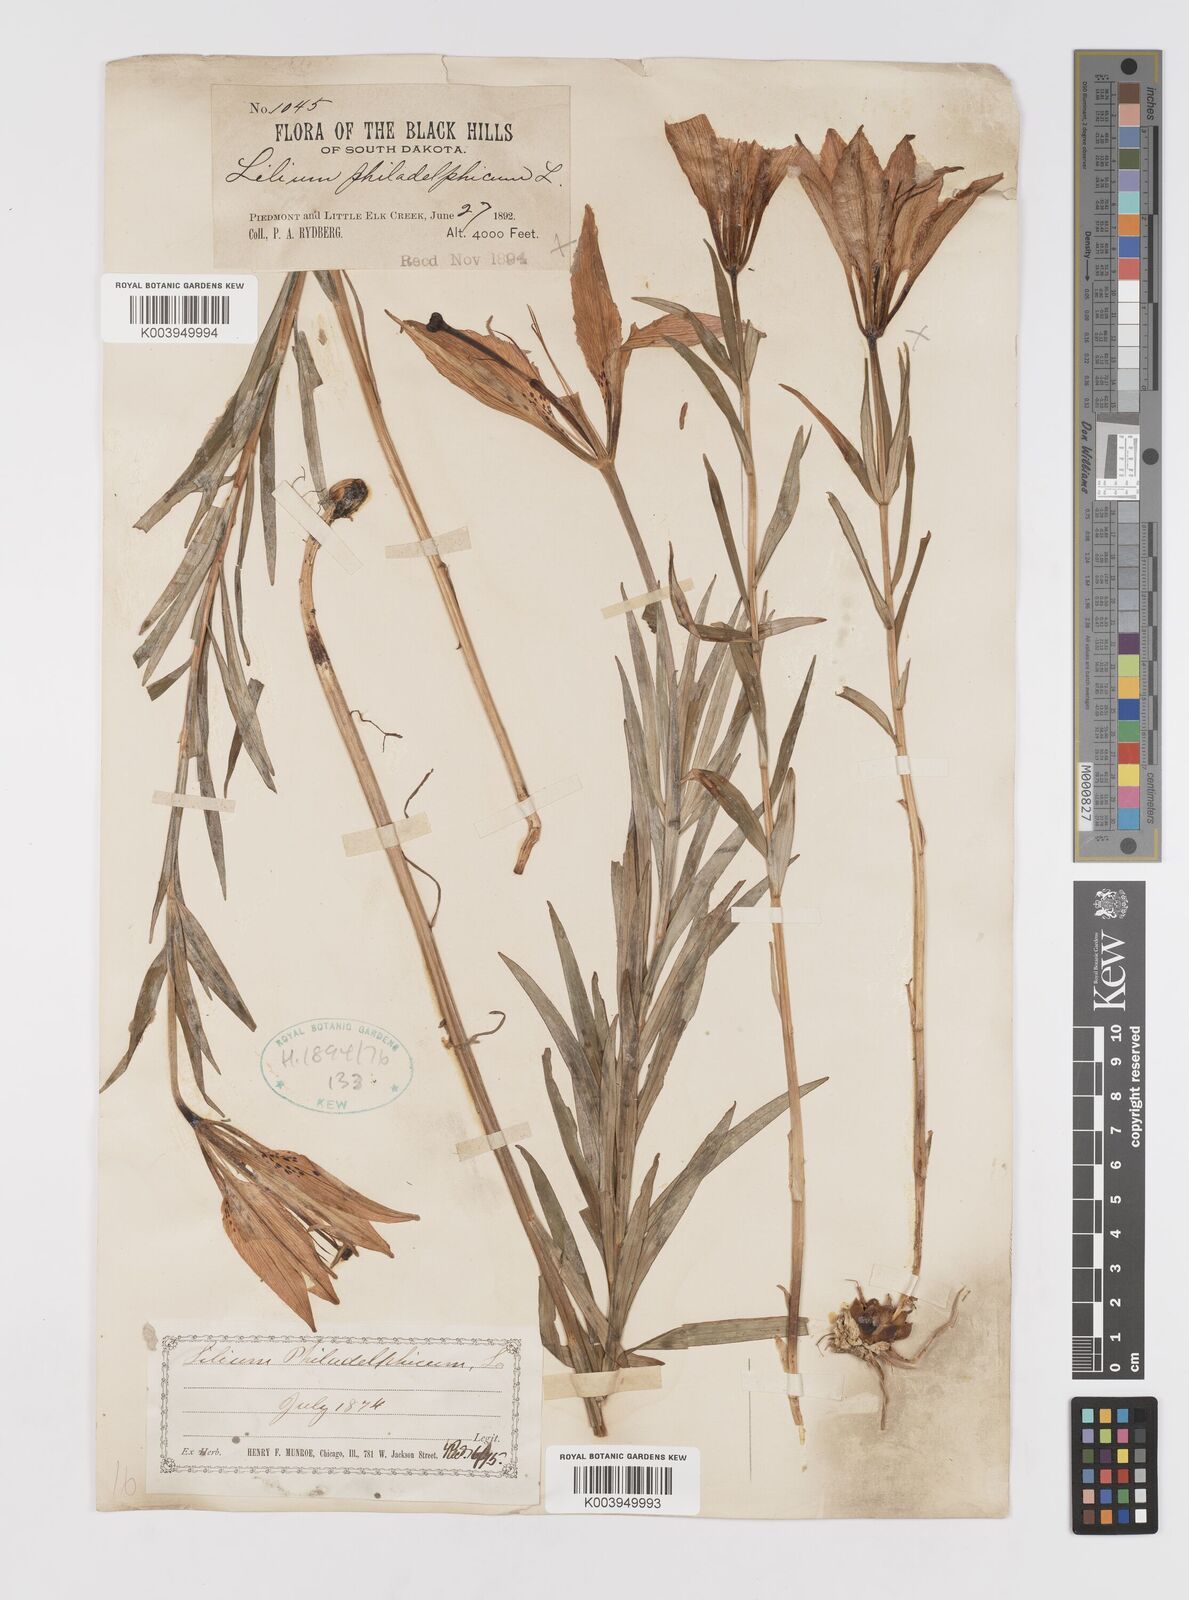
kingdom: Plantae
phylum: Tracheophyta
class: Liliopsida
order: Liliales
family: Liliaceae
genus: Lilium
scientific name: Lilium philadelphicum
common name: Red lily
